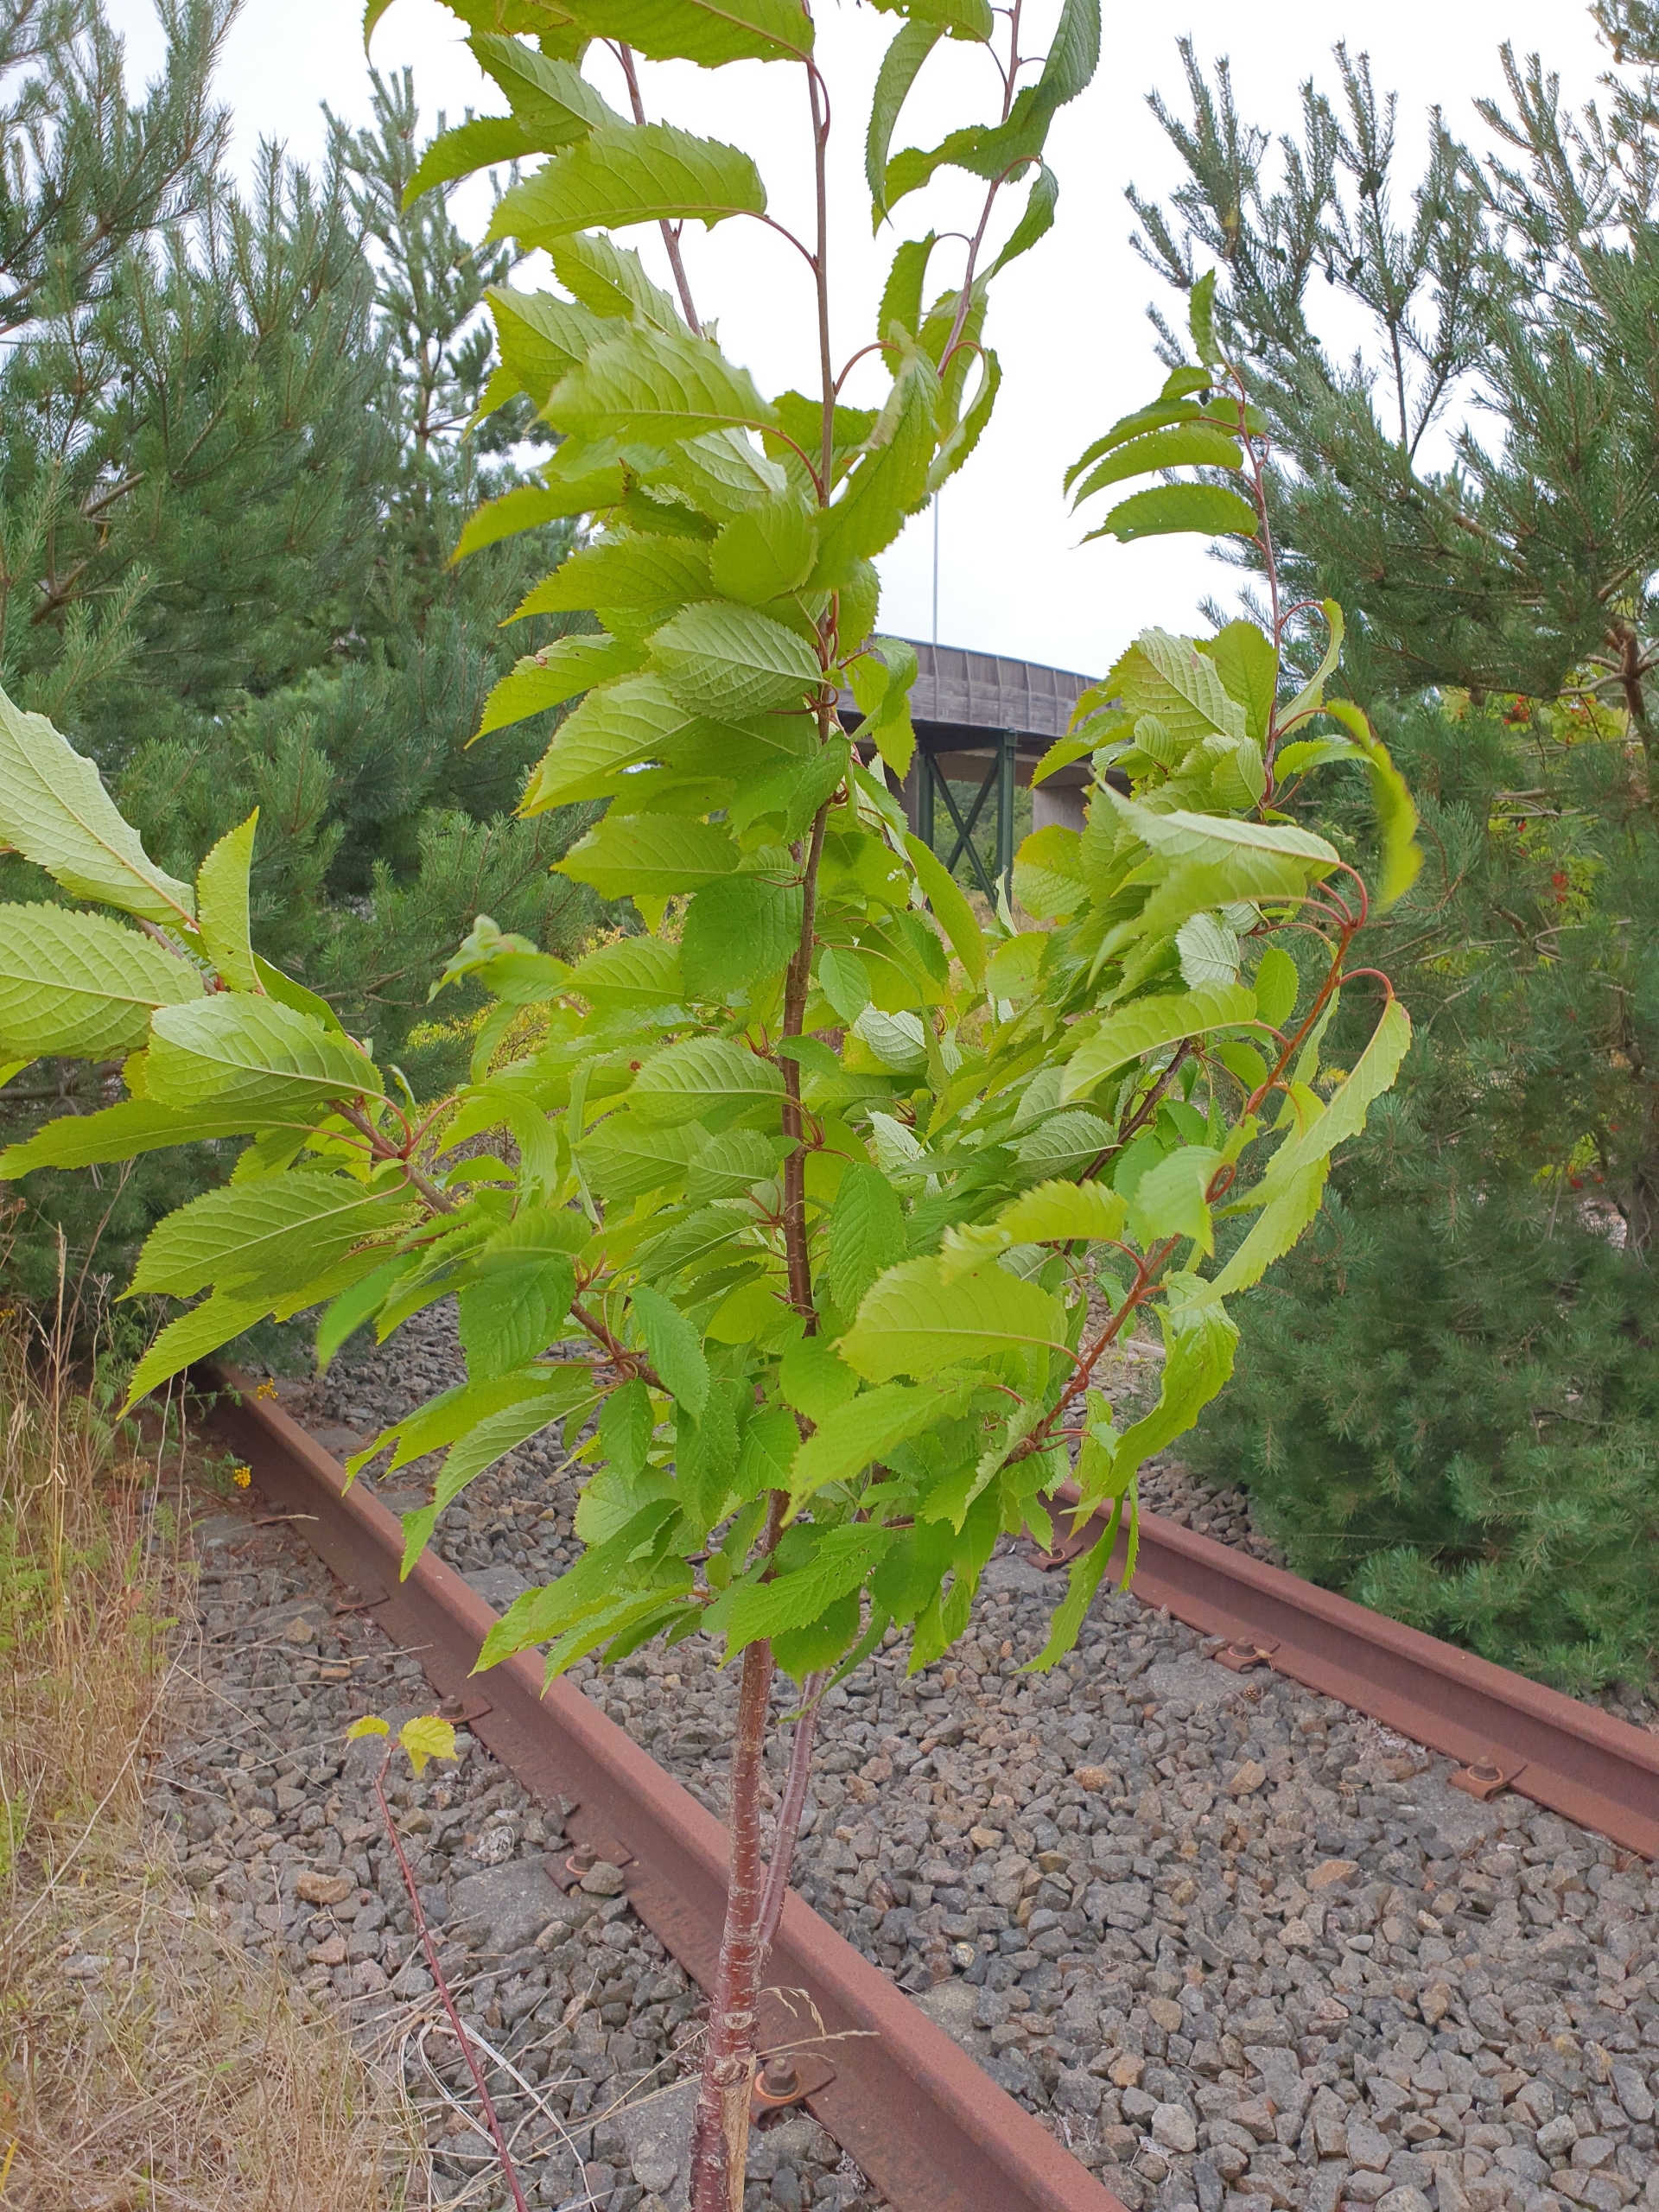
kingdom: Plantae
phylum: Tracheophyta
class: Magnoliopsida
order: Rosales
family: Rosaceae
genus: Prunus
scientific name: Prunus avium
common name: Fugle-kirsebær
